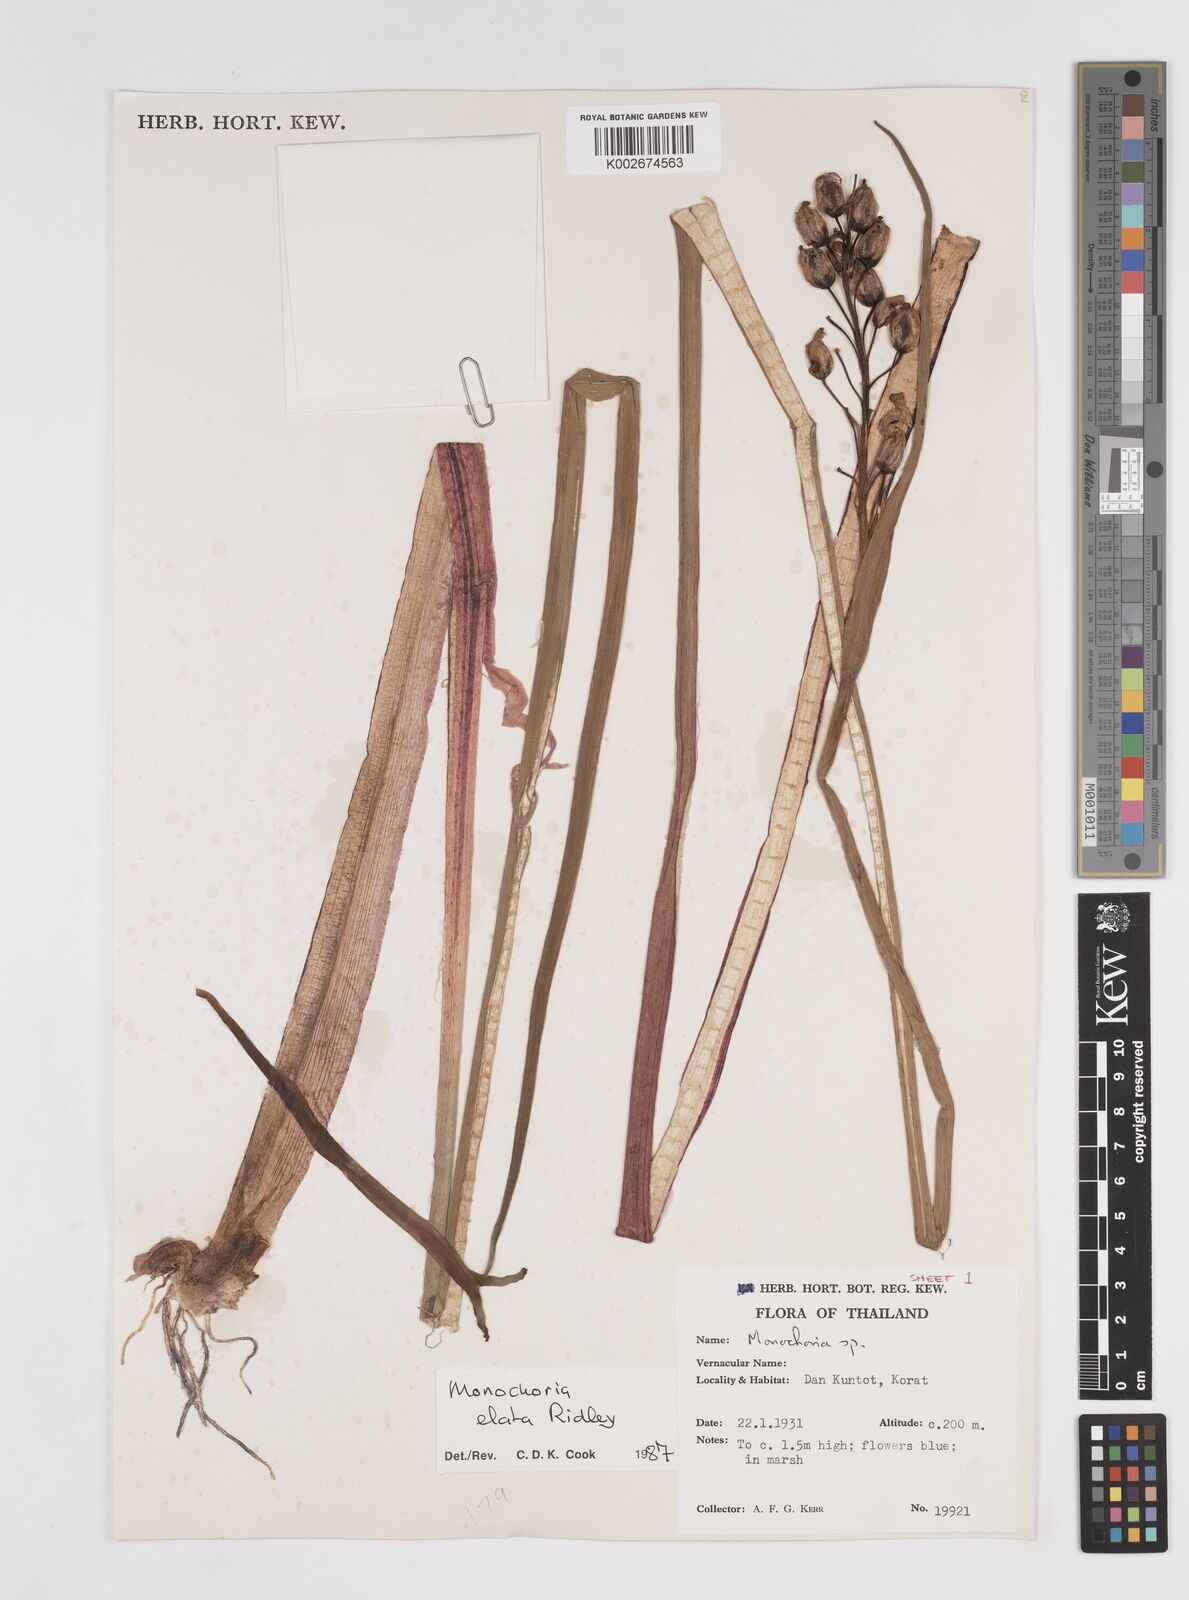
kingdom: Plantae
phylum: Tracheophyta
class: Liliopsida
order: Commelinales
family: Pontederiaceae
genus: Pontederia
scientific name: Pontederia elata
